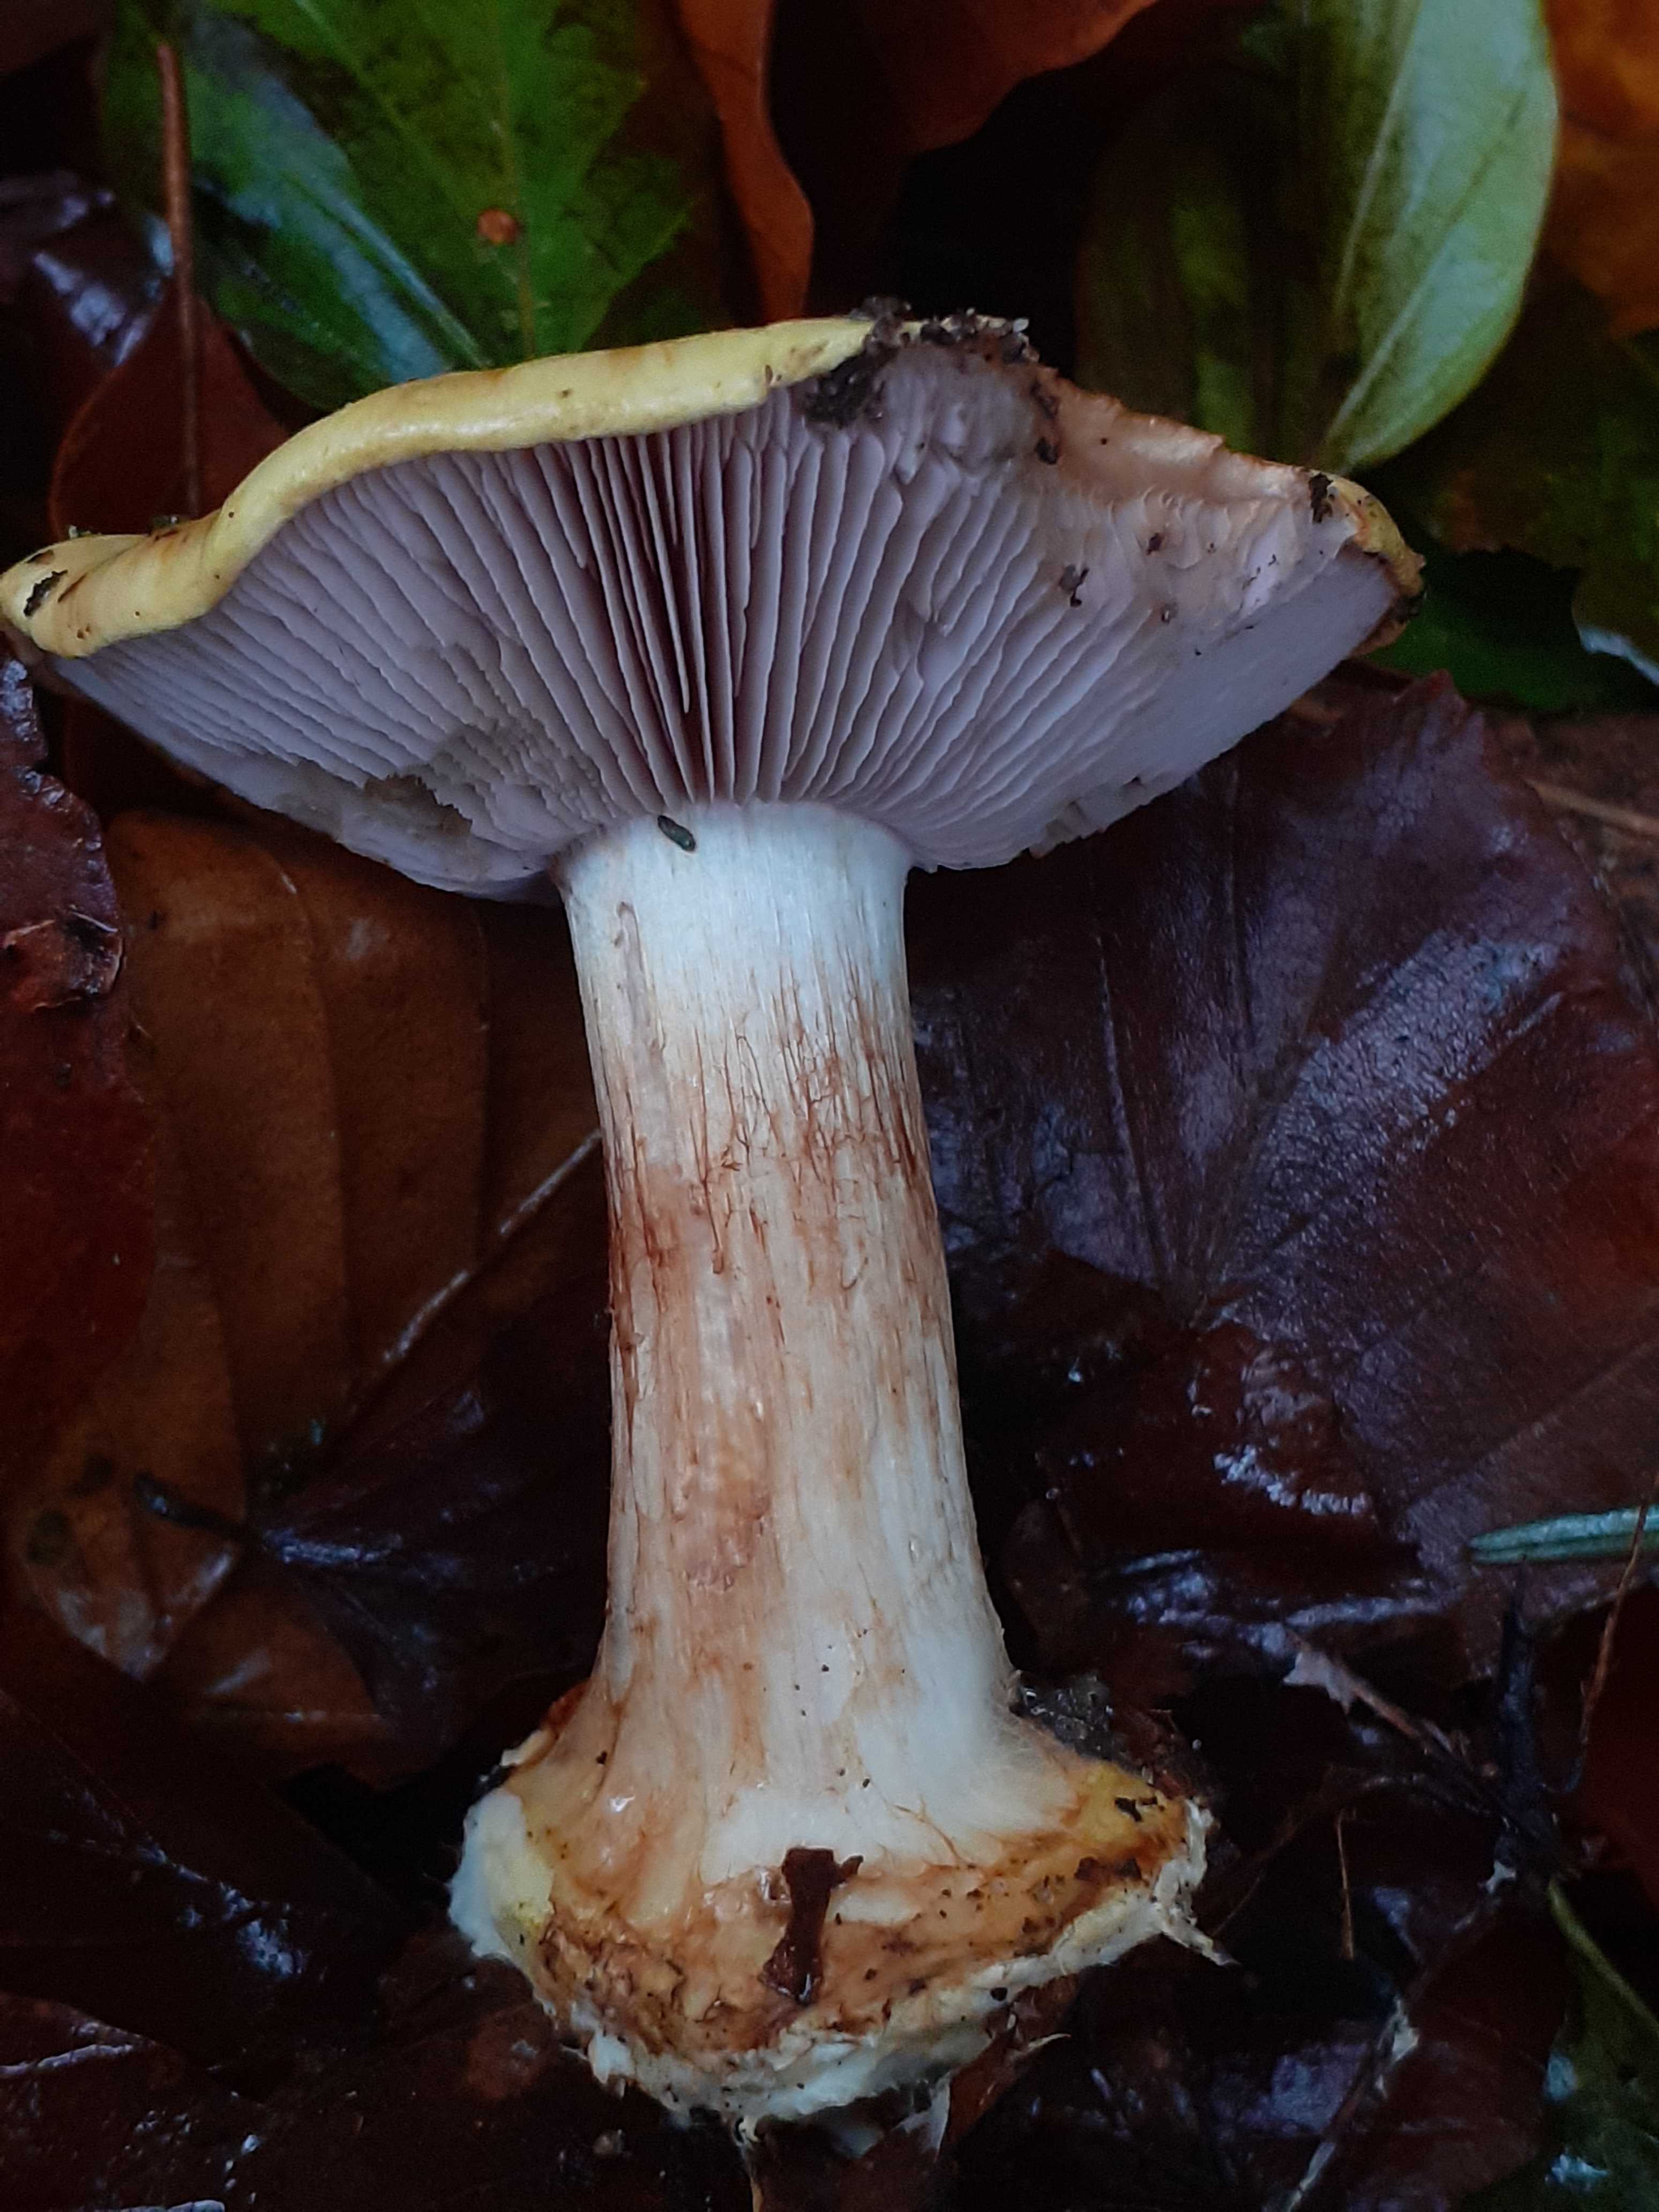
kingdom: Fungi
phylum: Basidiomycota
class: Agaricomycetes
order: Agaricales
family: Cortinariaceae
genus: Calonarius
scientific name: Calonarius callochrous
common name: lillabladet slørhat
